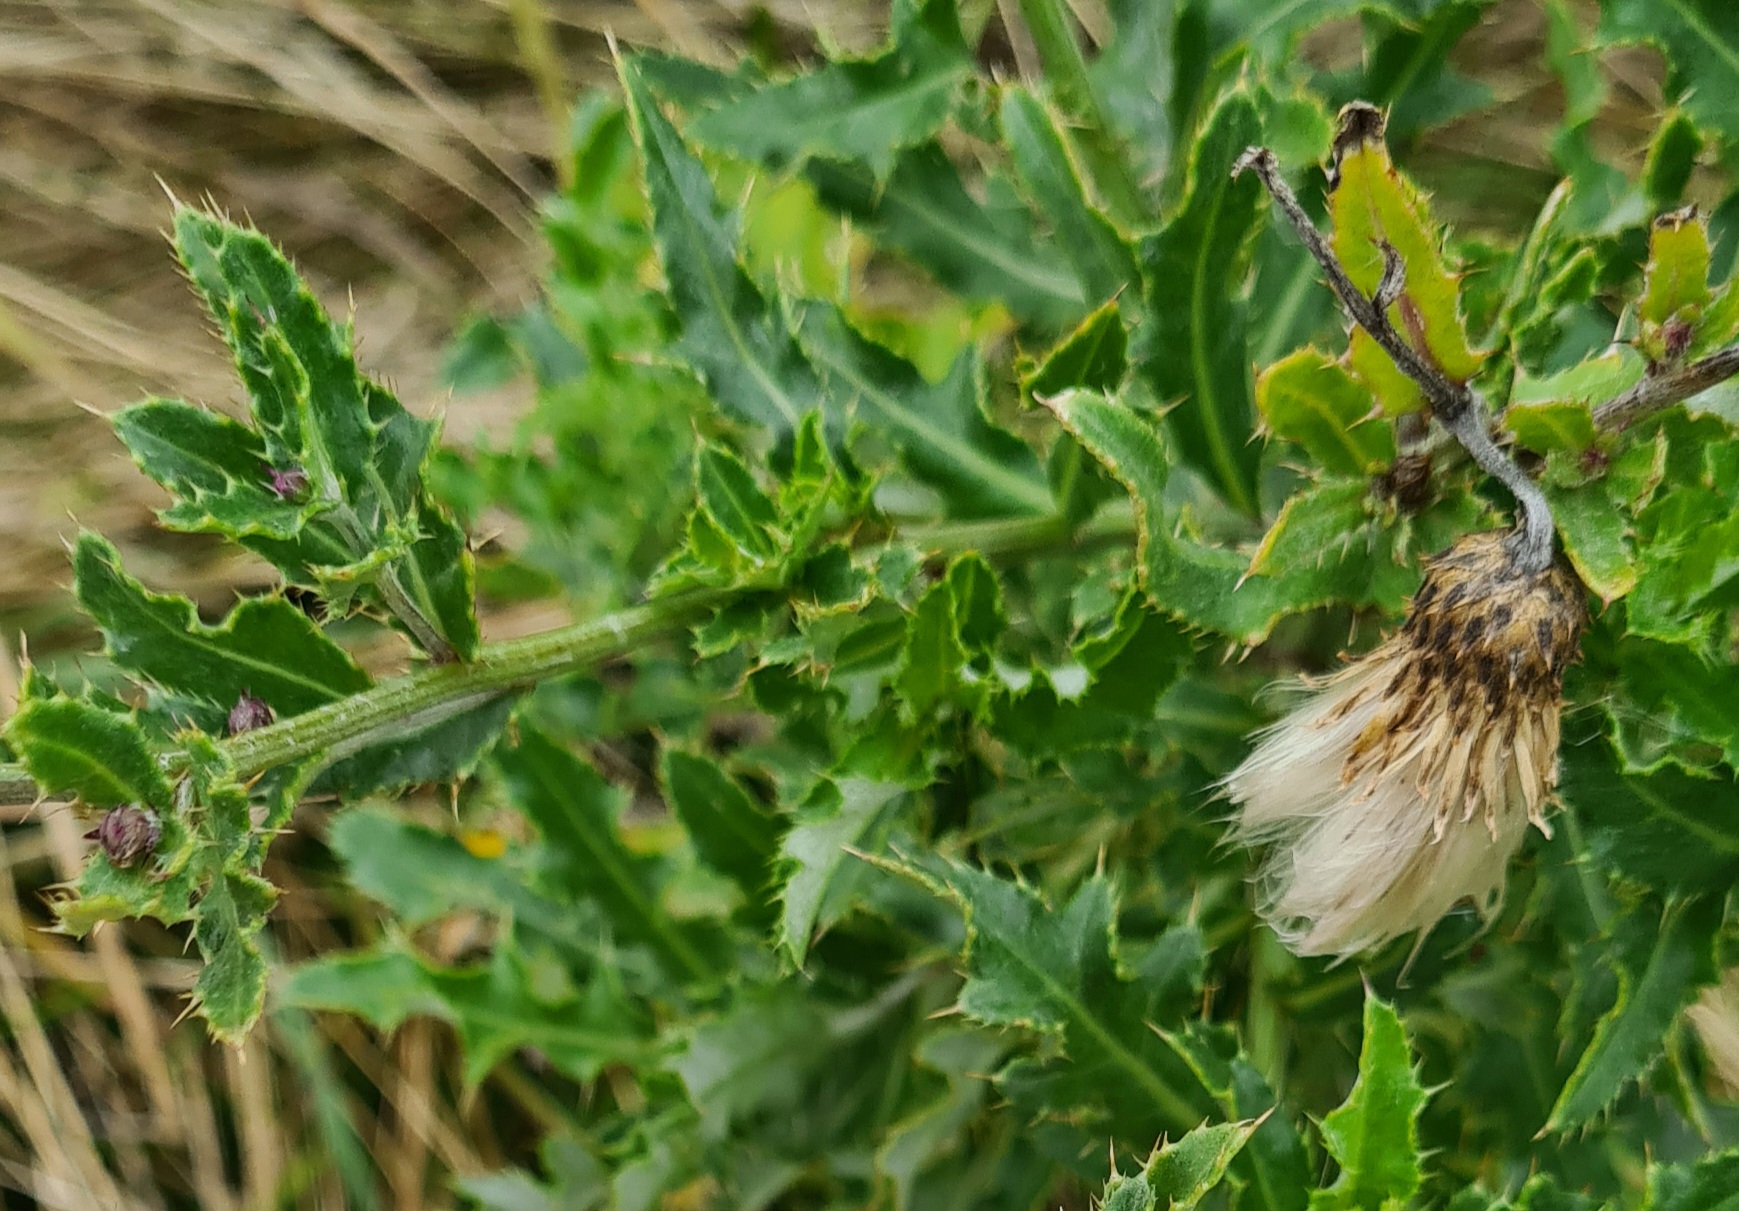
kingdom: Plantae
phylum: Tracheophyta
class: Magnoliopsida
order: Asterales
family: Asteraceae
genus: Cirsium
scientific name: Cirsium arvense
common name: Ager-tidsel
